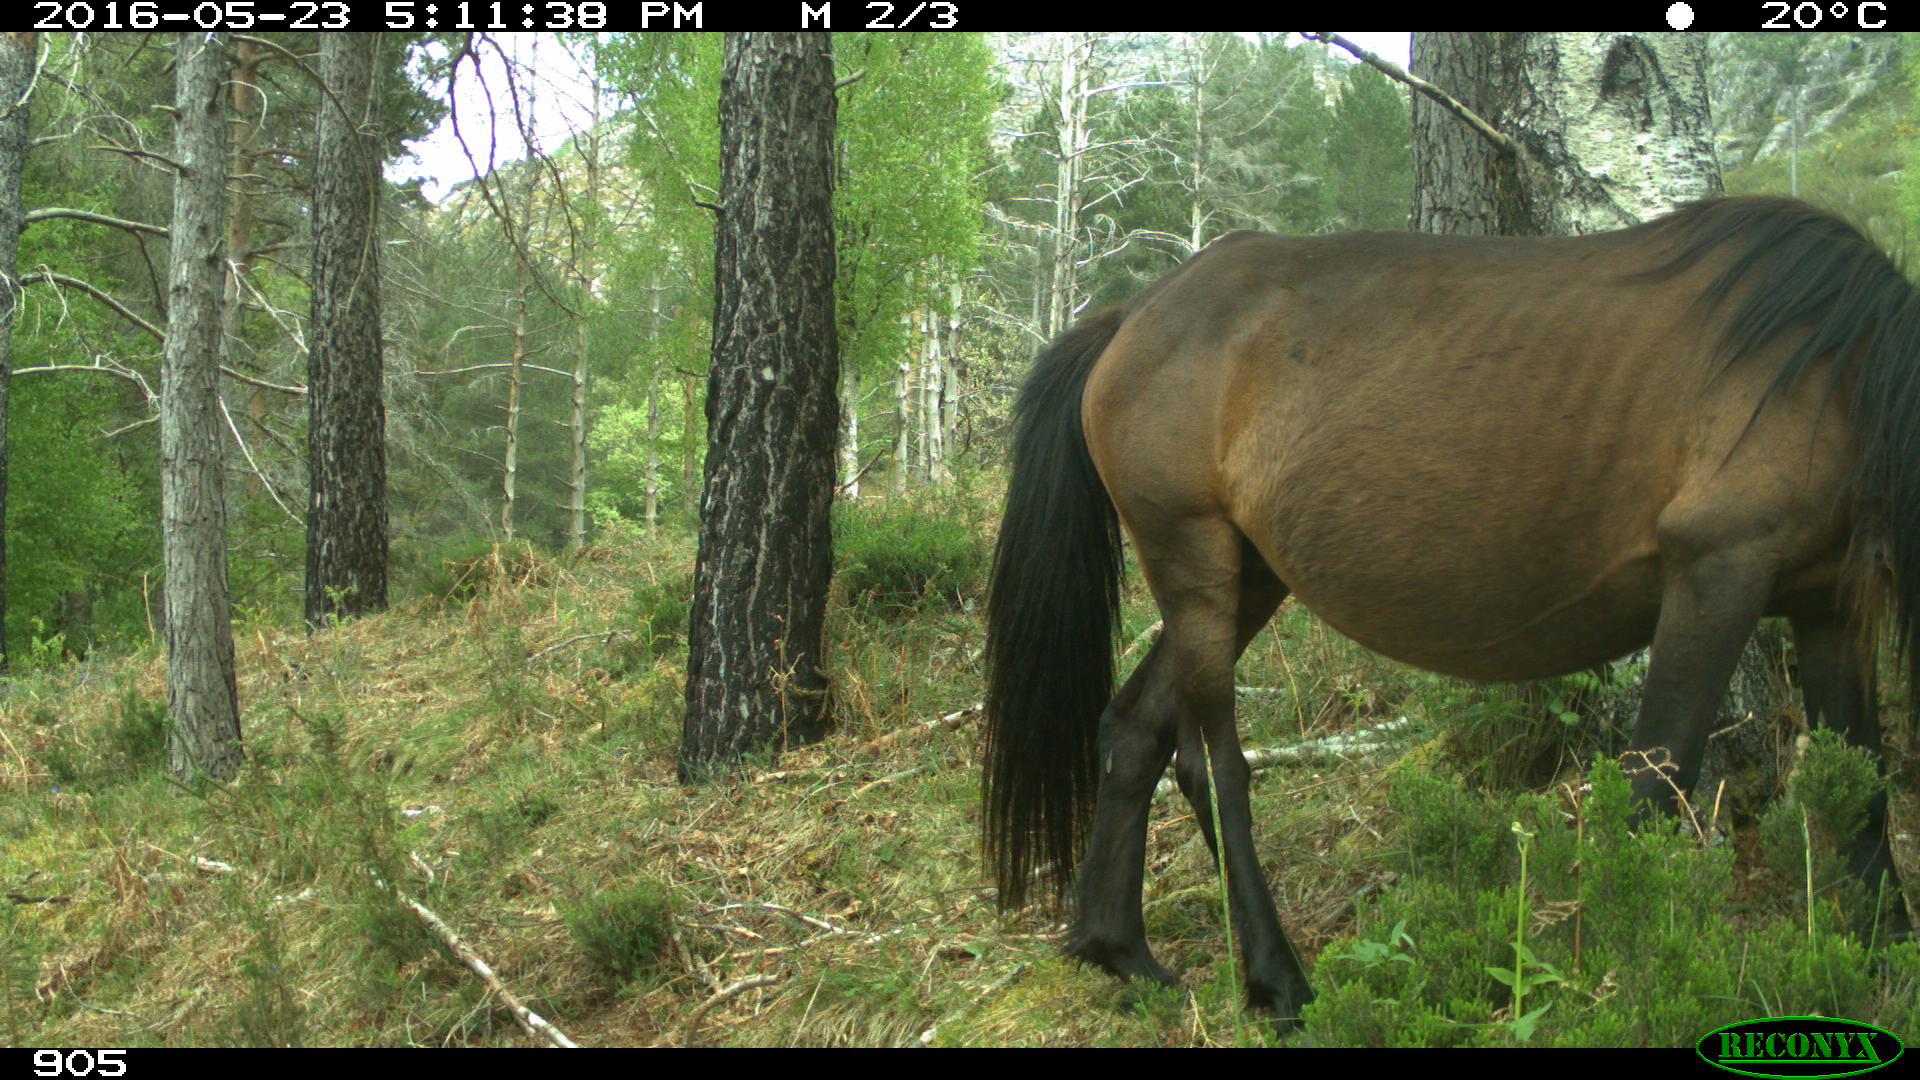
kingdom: Animalia
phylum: Chordata
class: Mammalia
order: Perissodactyla
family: Equidae
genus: Equus
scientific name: Equus caballus
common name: Horse
